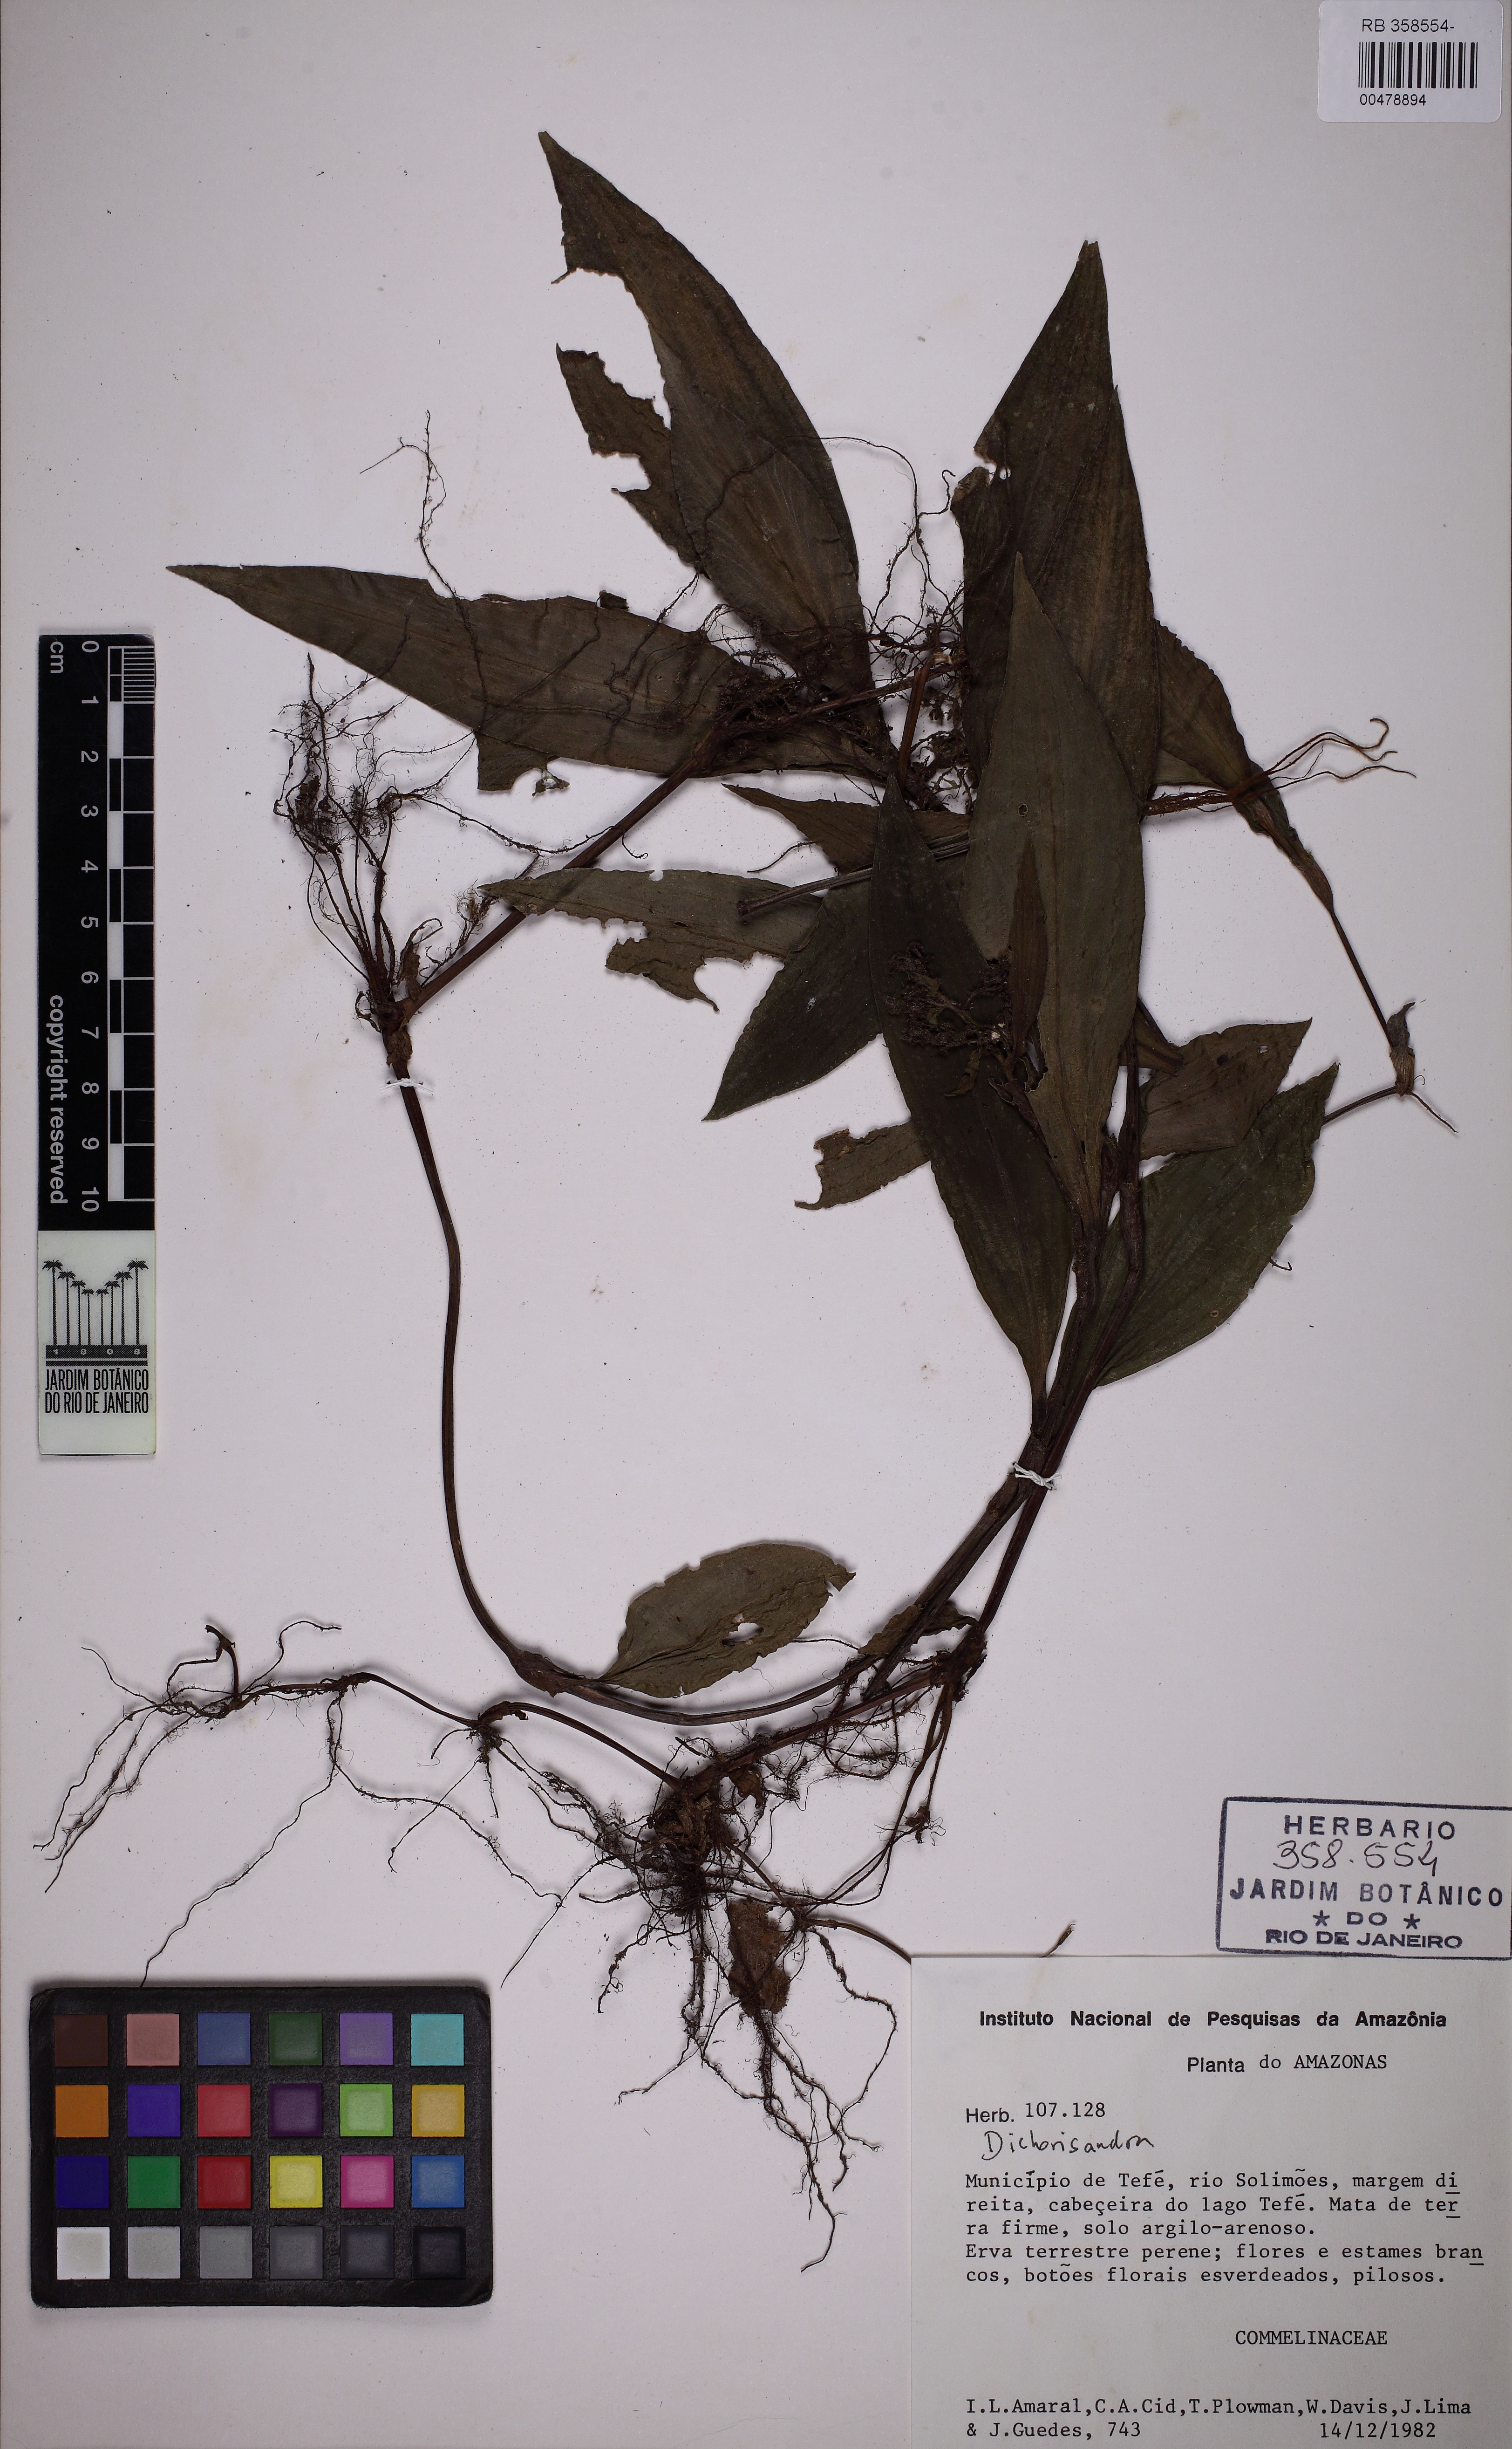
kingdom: Plantae
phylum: Tracheophyta
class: Liliopsida
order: Commelinales
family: Commelinaceae
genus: Floscopa
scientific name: Floscopa
